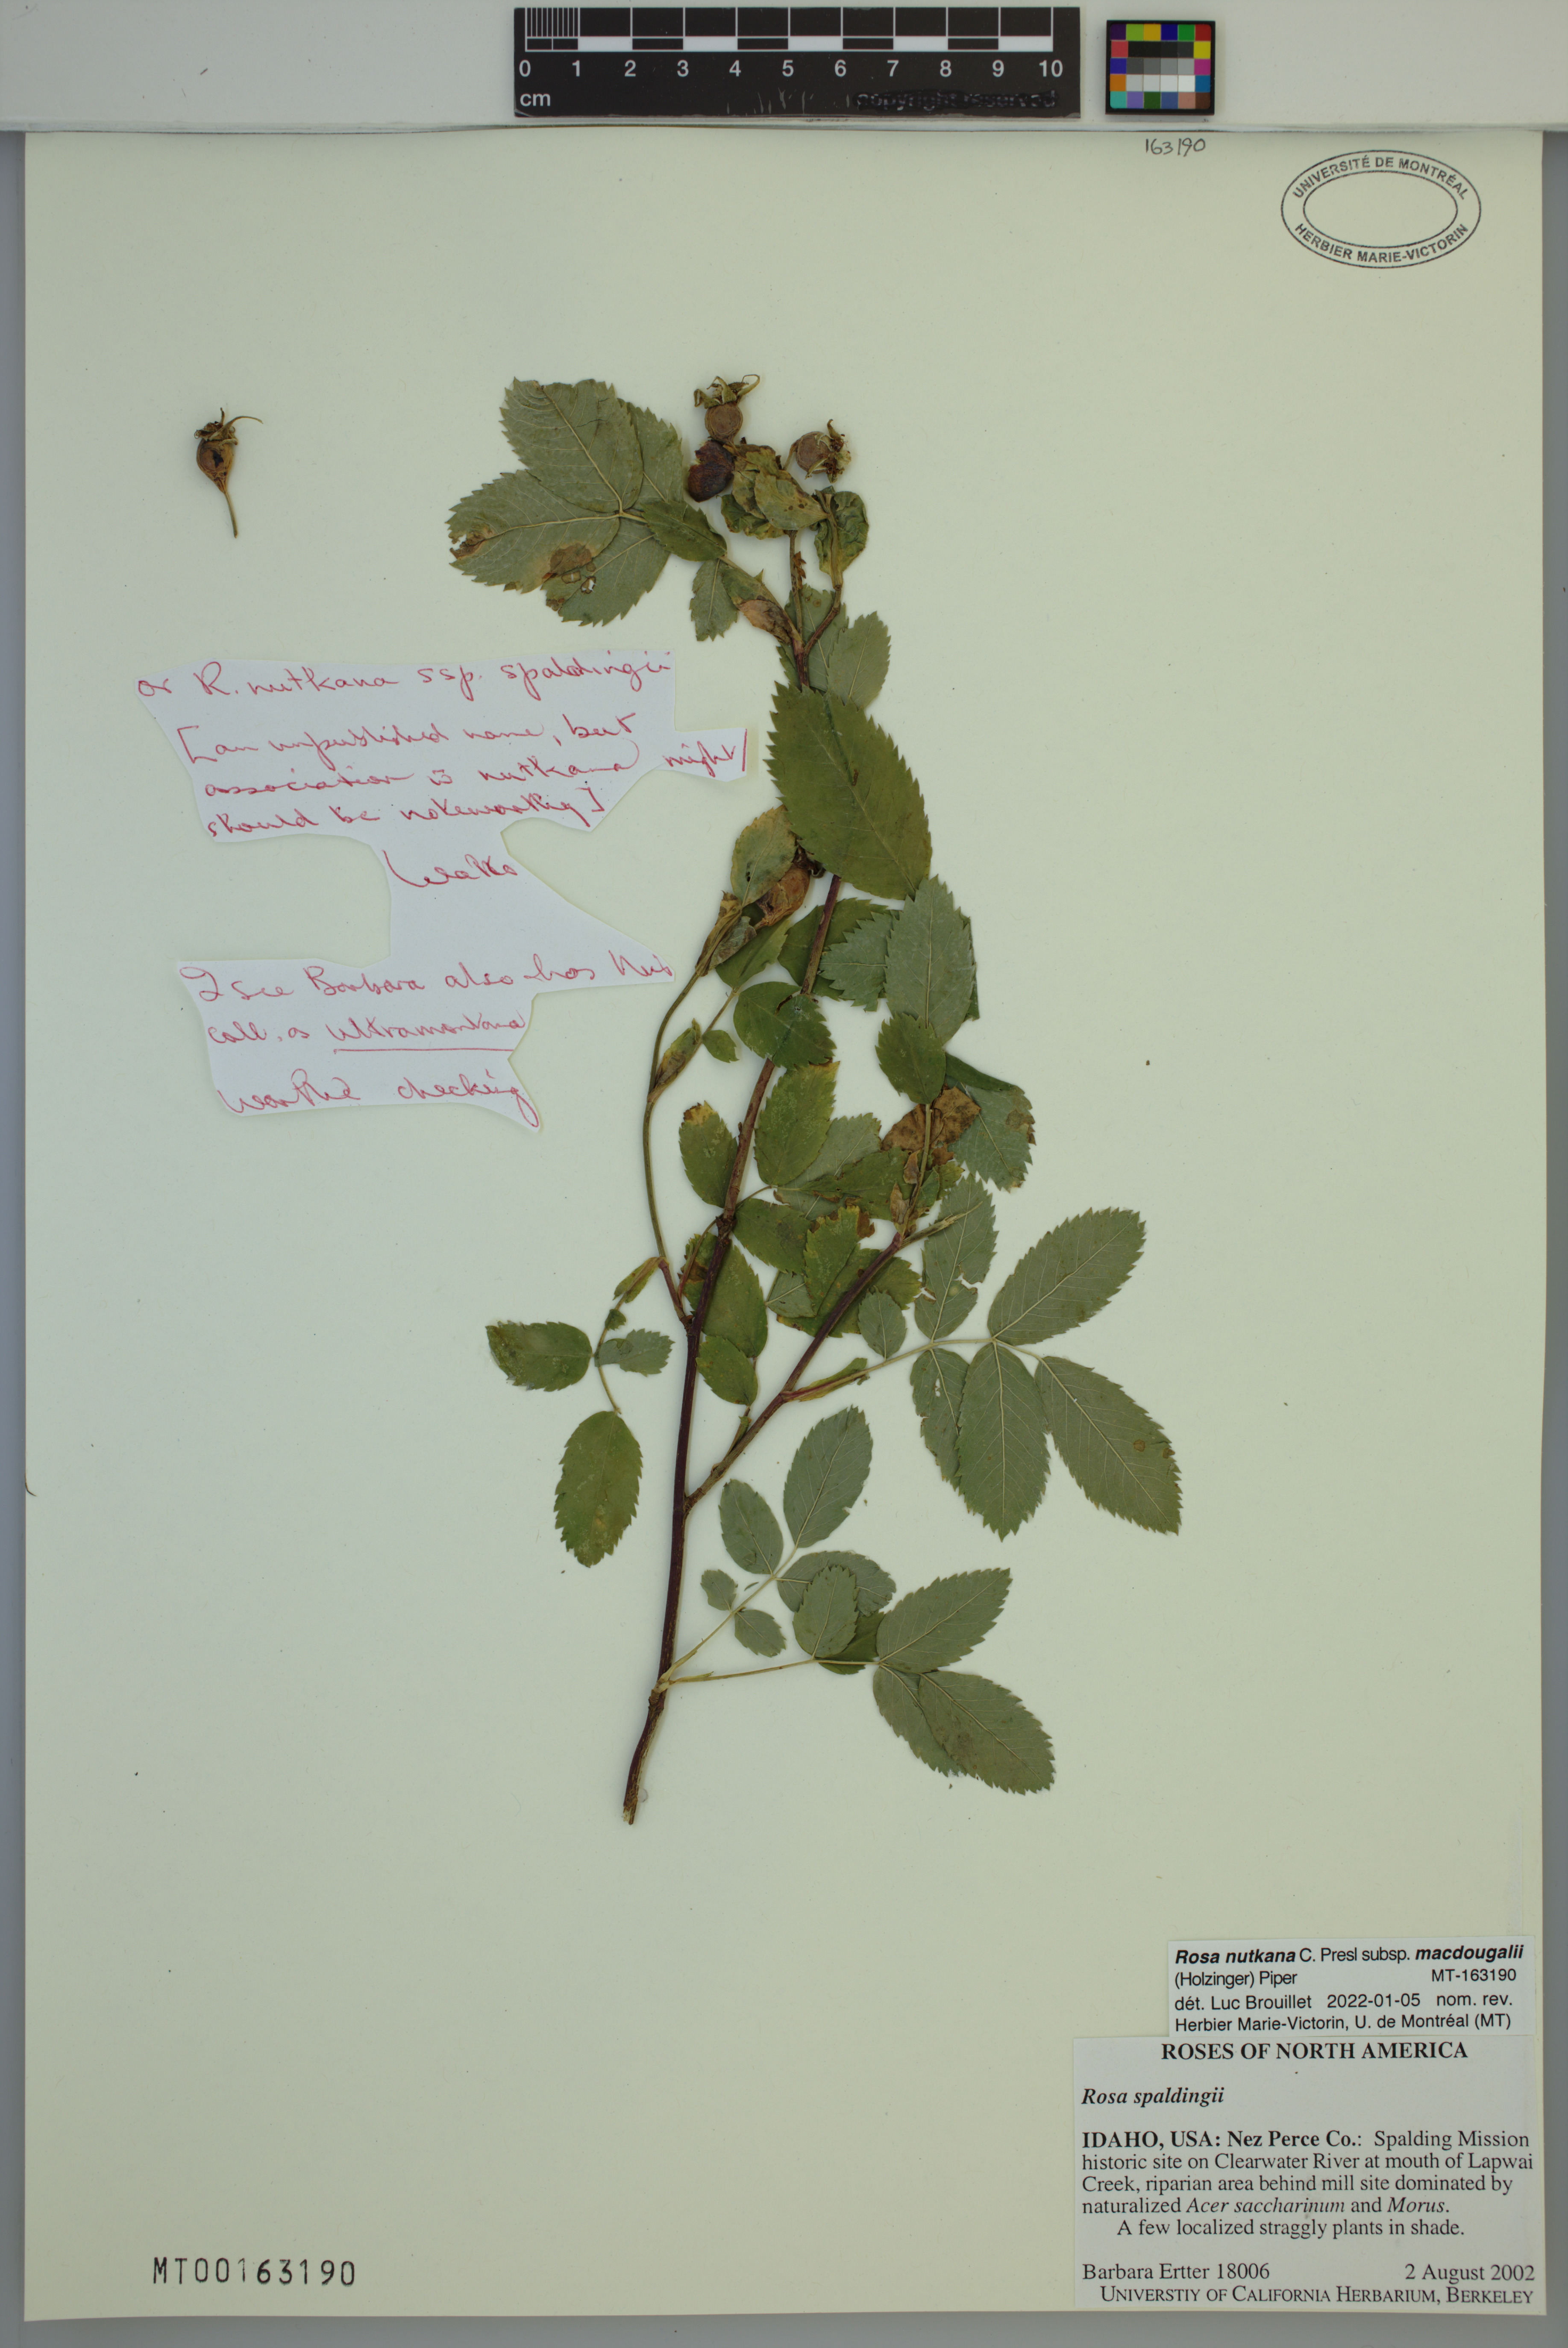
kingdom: Plantae
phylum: Tracheophyta
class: Magnoliopsida
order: Rosales
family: Rosaceae
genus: Rosa
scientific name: Rosa nutkana
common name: Nootka rose
